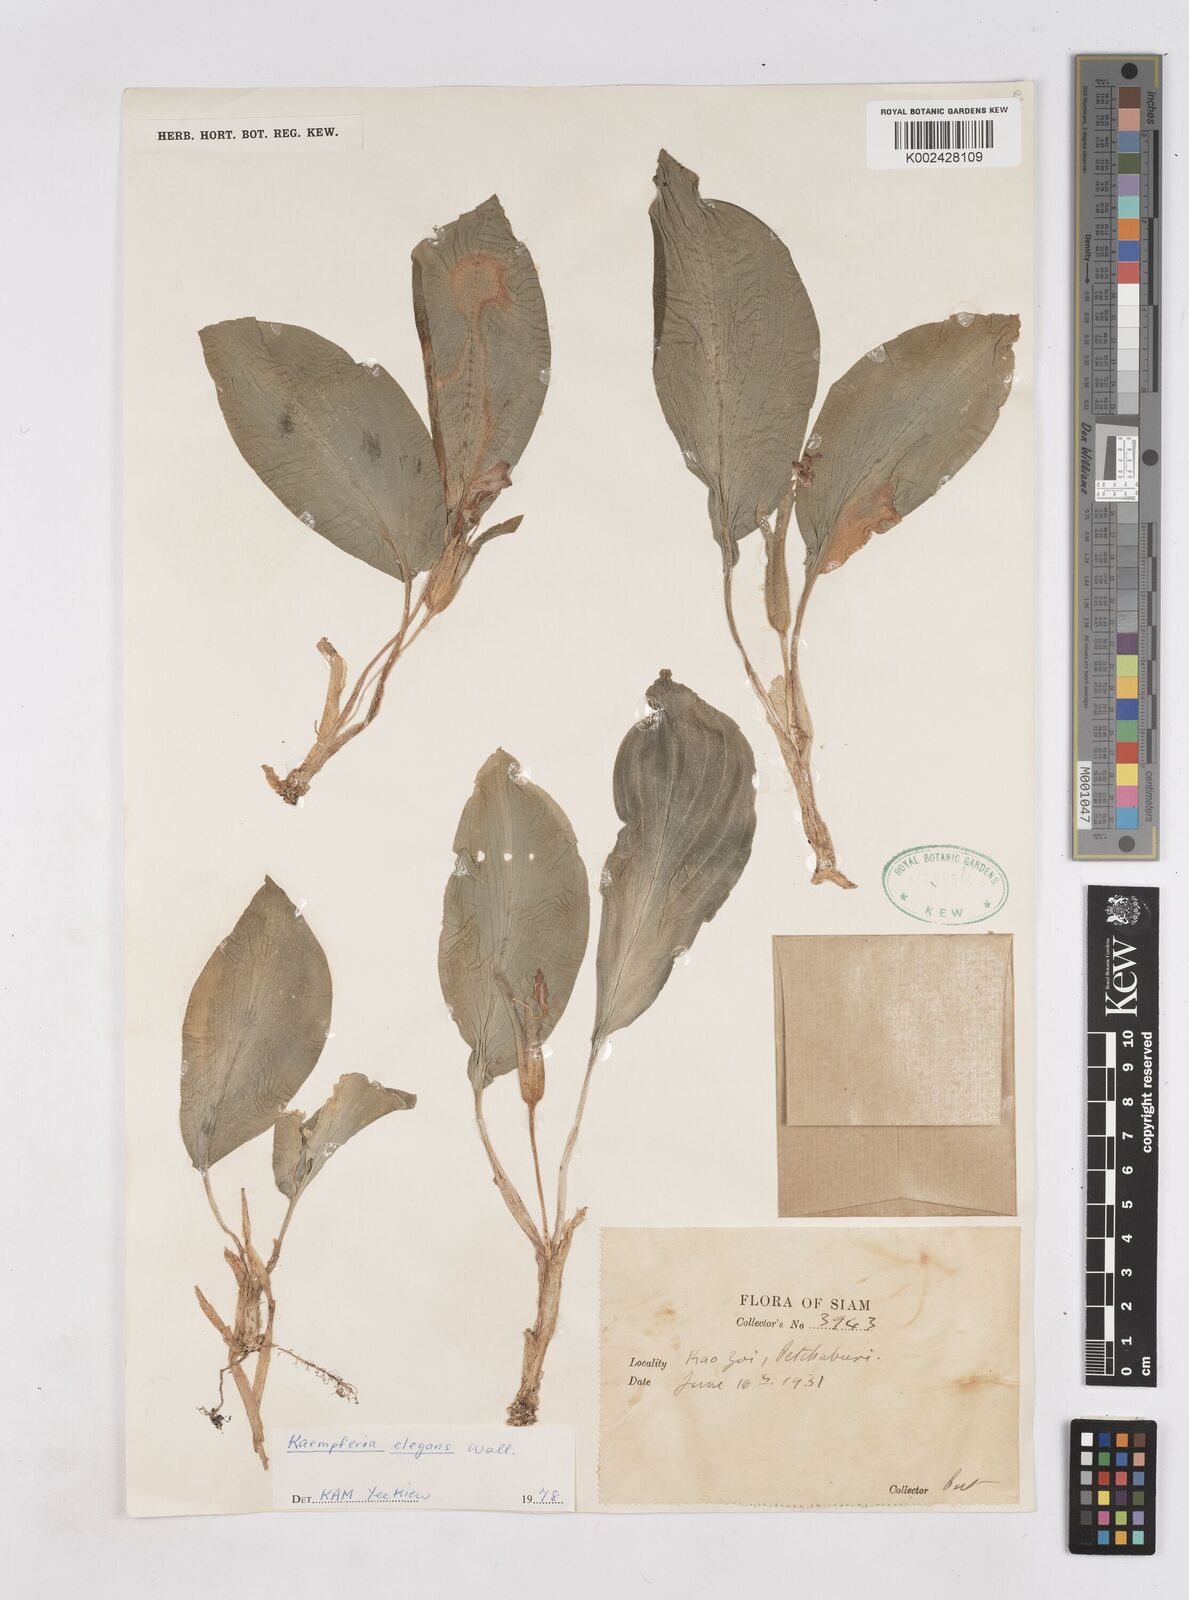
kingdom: Plantae
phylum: Tracheophyta
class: Liliopsida
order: Zingiberales
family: Zingiberaceae
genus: Kaempferia
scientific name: Kaempferia elegans
